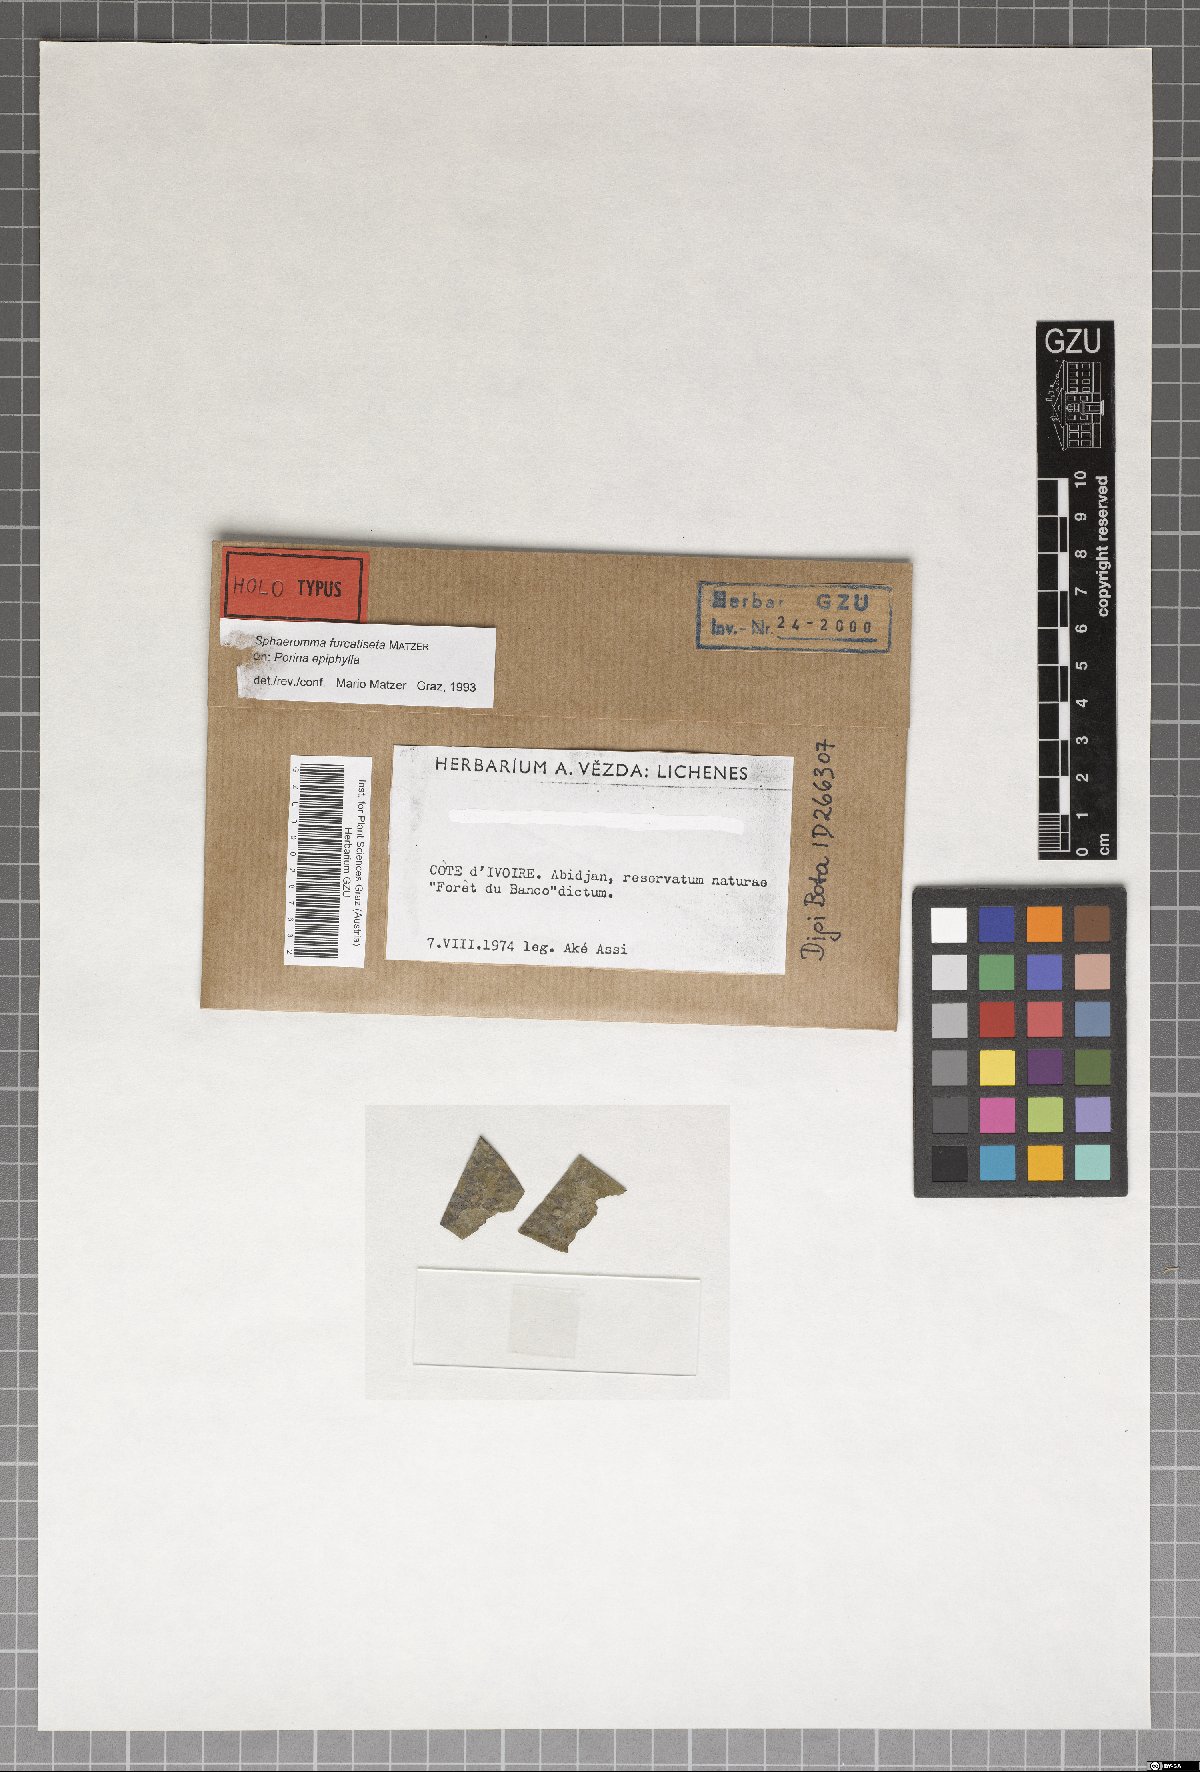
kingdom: Fungi
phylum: Ascomycota
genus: Sphaeromma
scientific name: Sphaeromma furcatiseta
